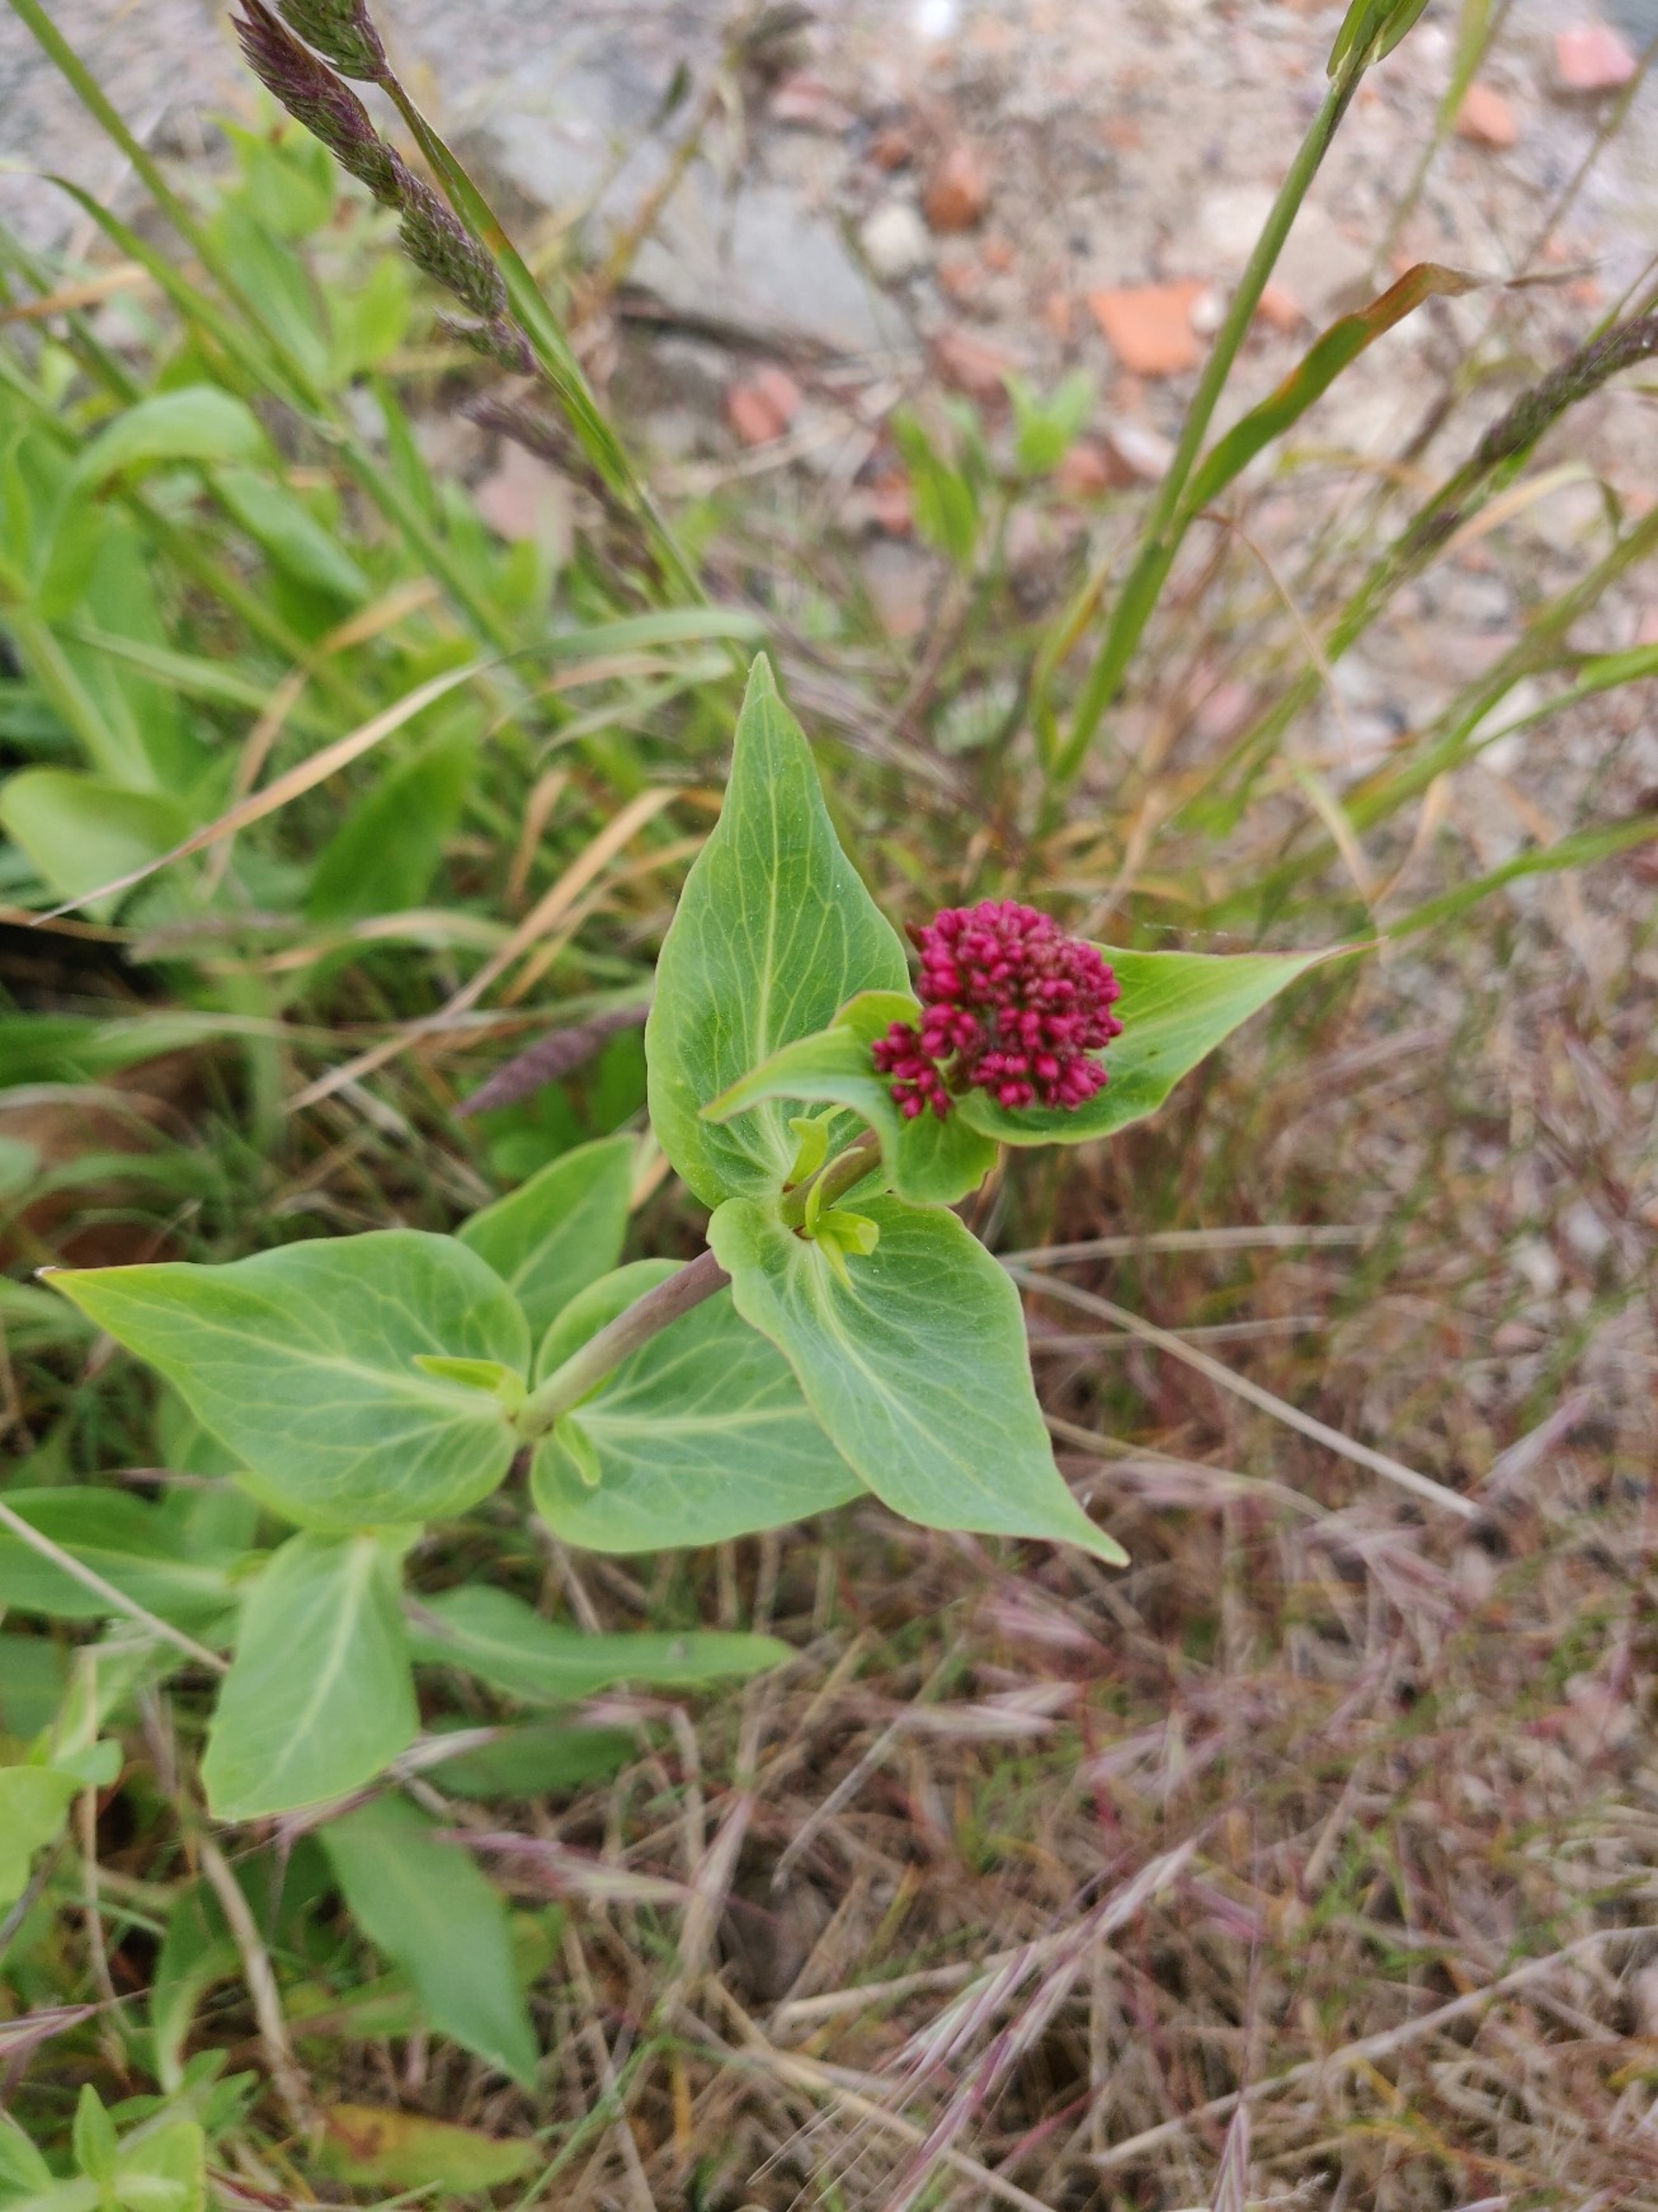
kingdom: Plantae
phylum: Tracheophyta
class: Magnoliopsida
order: Dipsacales
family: Caprifoliaceae
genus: Centranthus
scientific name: Centranthus ruber
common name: Sporebaldrian
